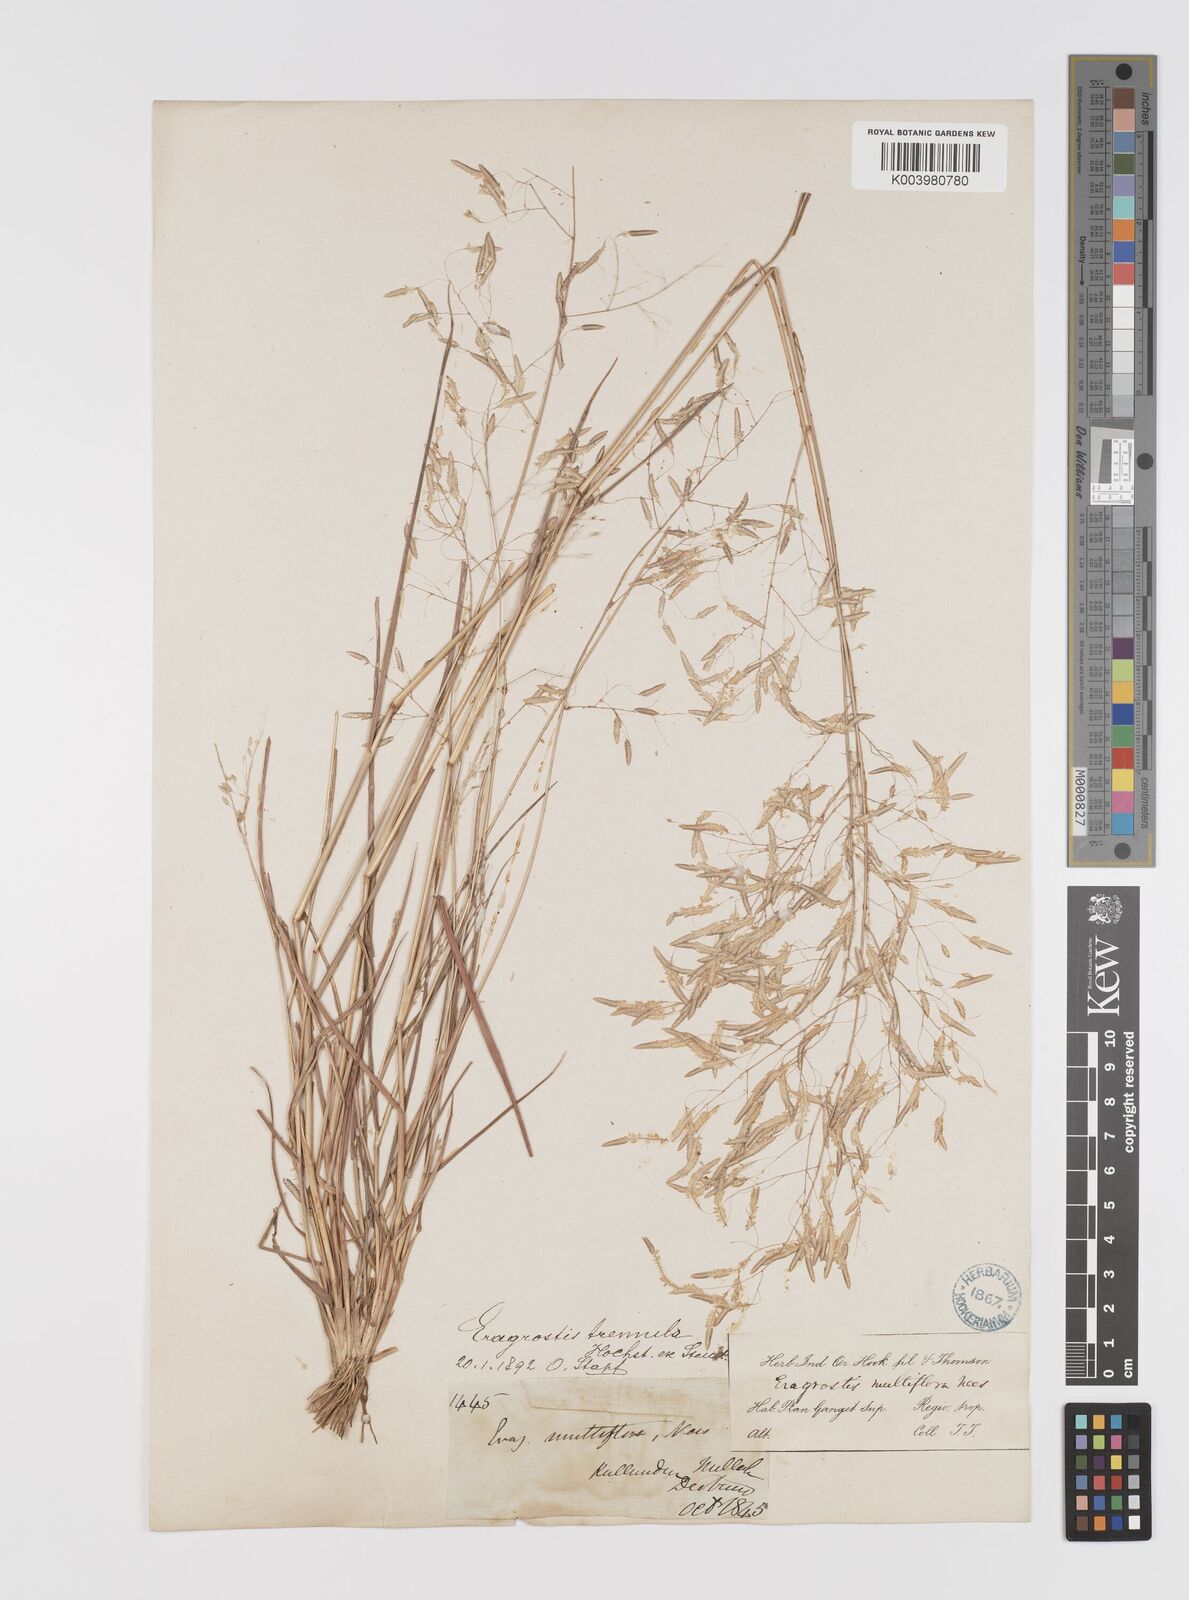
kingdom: Plantae
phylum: Tracheophyta
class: Liliopsida
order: Poales
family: Poaceae
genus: Eragrostis
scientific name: Eragrostis tremula
